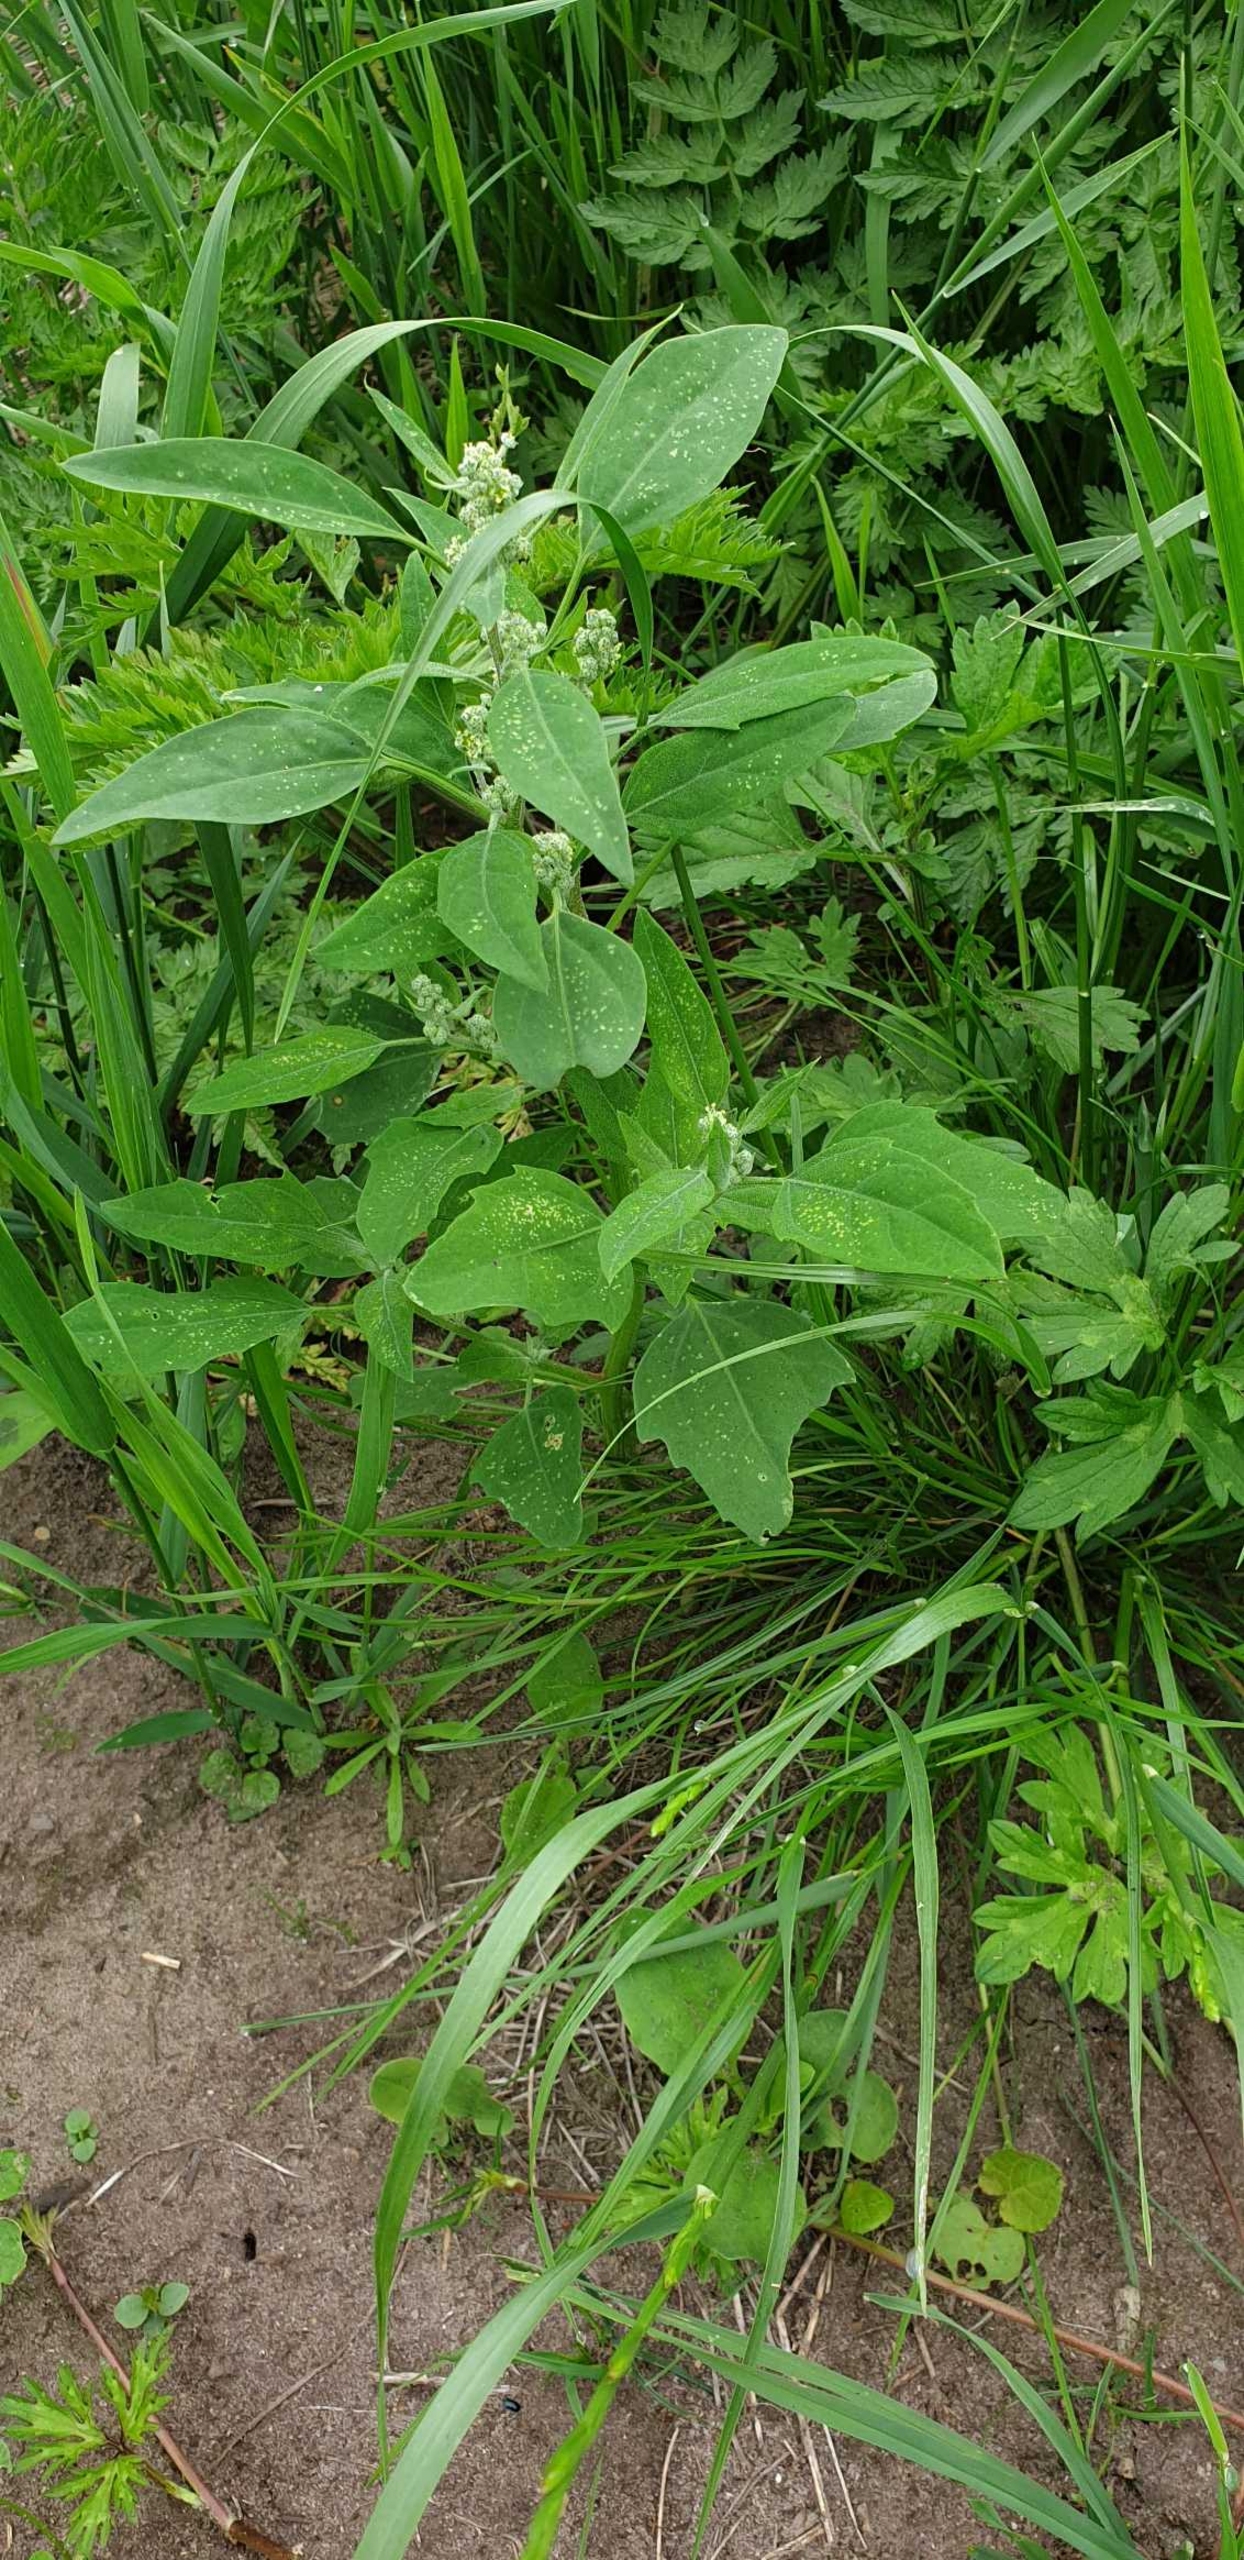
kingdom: Plantae
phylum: Tracheophyta
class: Magnoliopsida
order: Caryophyllales
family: Amaranthaceae
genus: Chenopodium
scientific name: Chenopodium album
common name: Hvidmelet gåsefod
